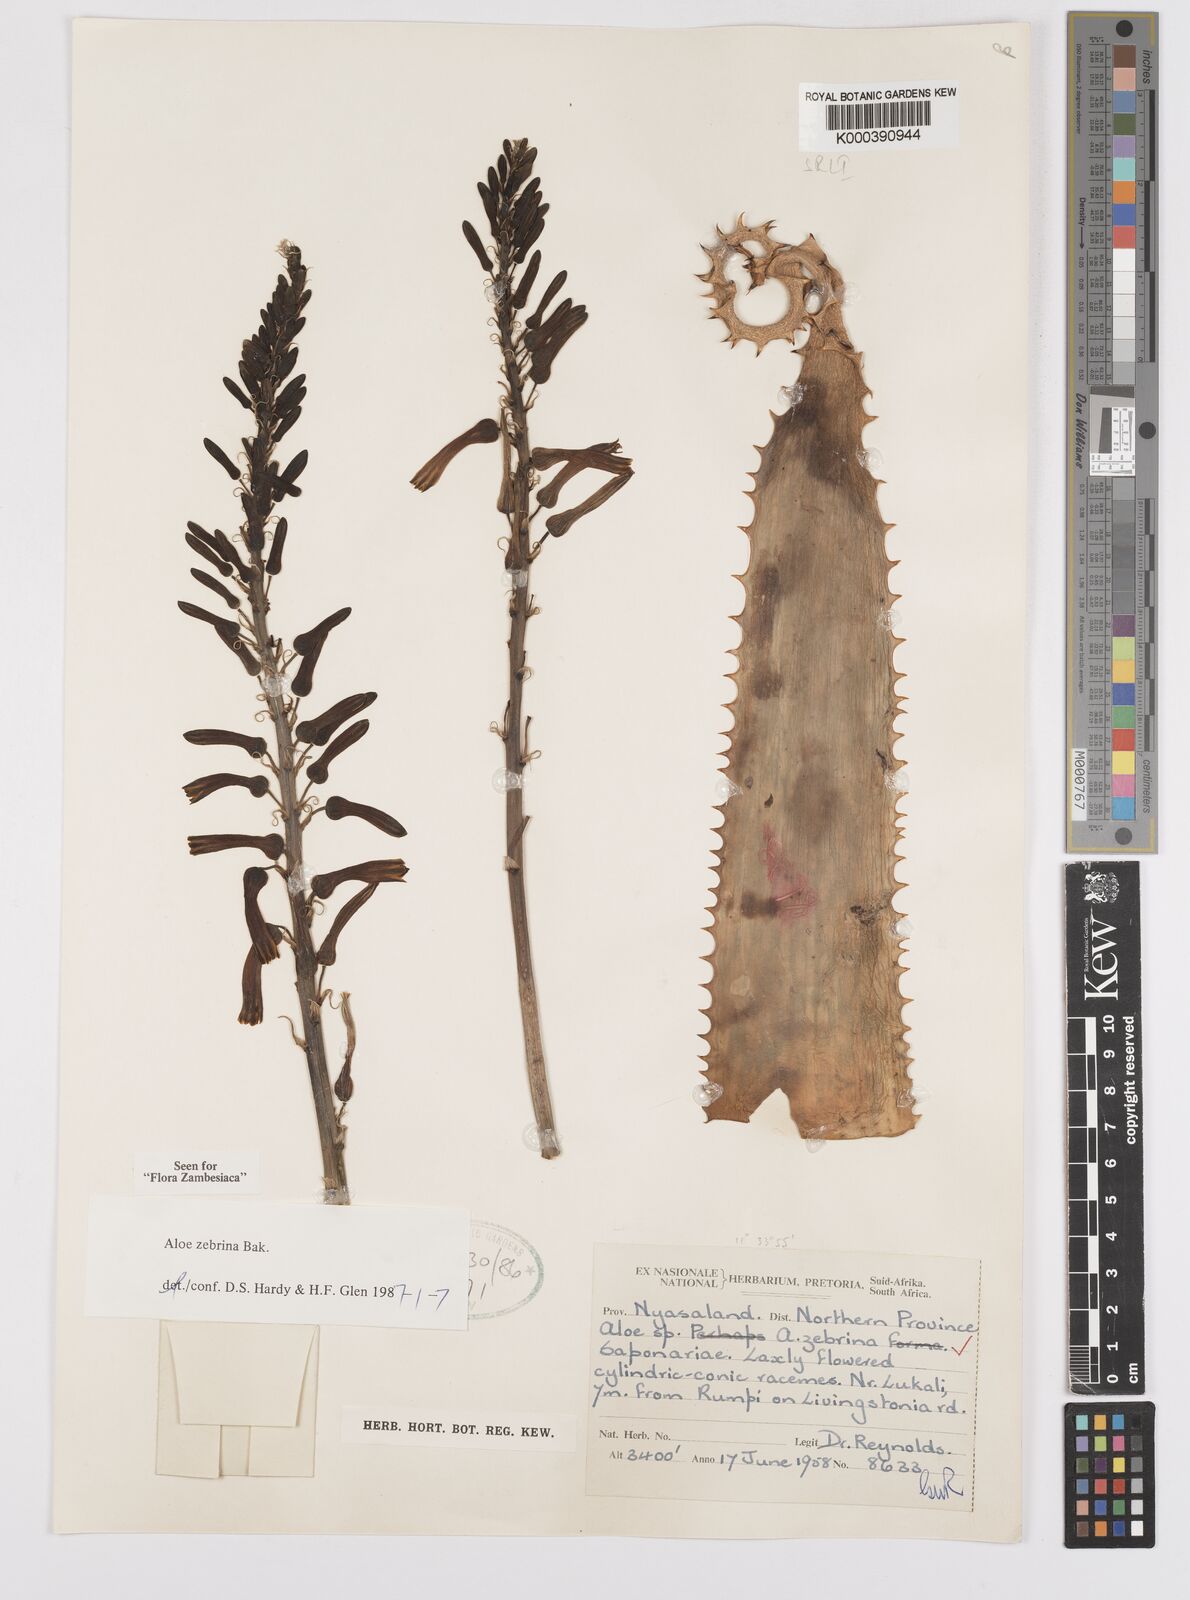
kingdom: Plantae
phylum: Tracheophyta
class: Liliopsida
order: Asparagales
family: Asphodelaceae
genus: Aloe
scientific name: Aloe zebrina
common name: Zebra-leaf aloe
